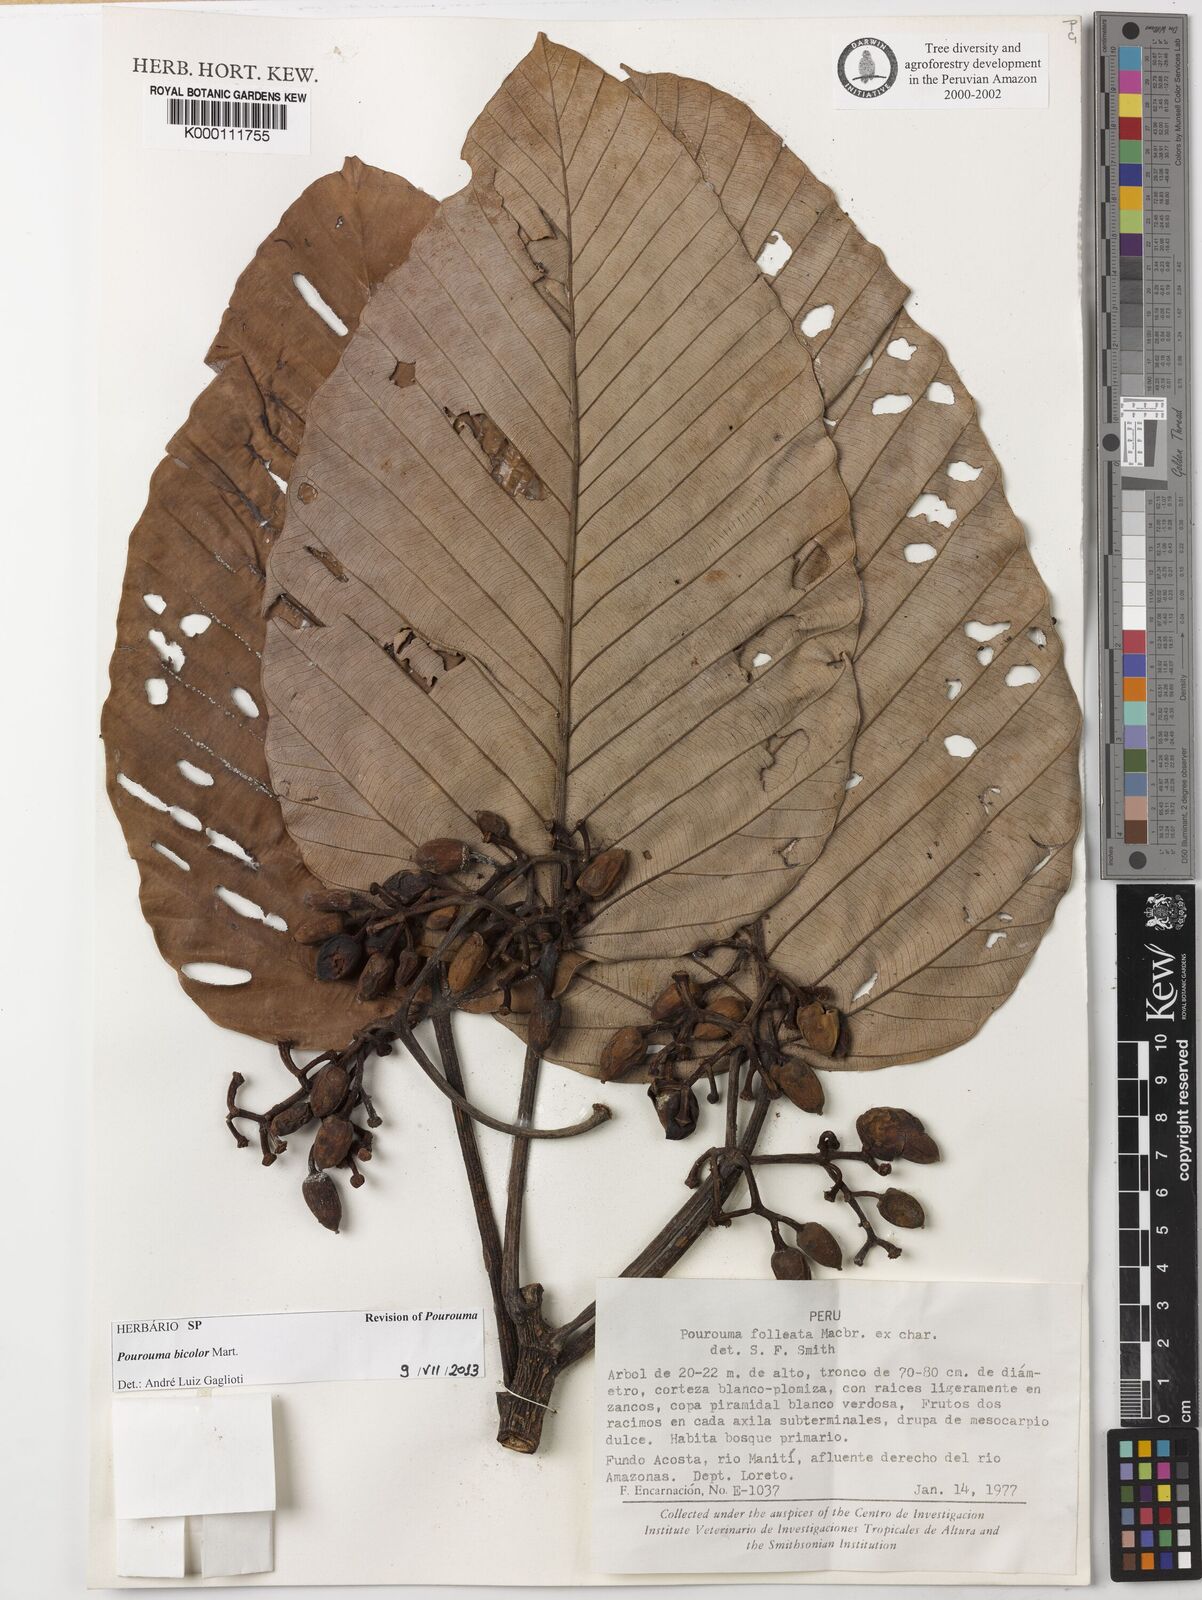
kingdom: Plantae
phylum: Tracheophyta
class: Magnoliopsida
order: Rosales
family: Urticaceae
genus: Pourouma
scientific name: Pourouma bicolor
